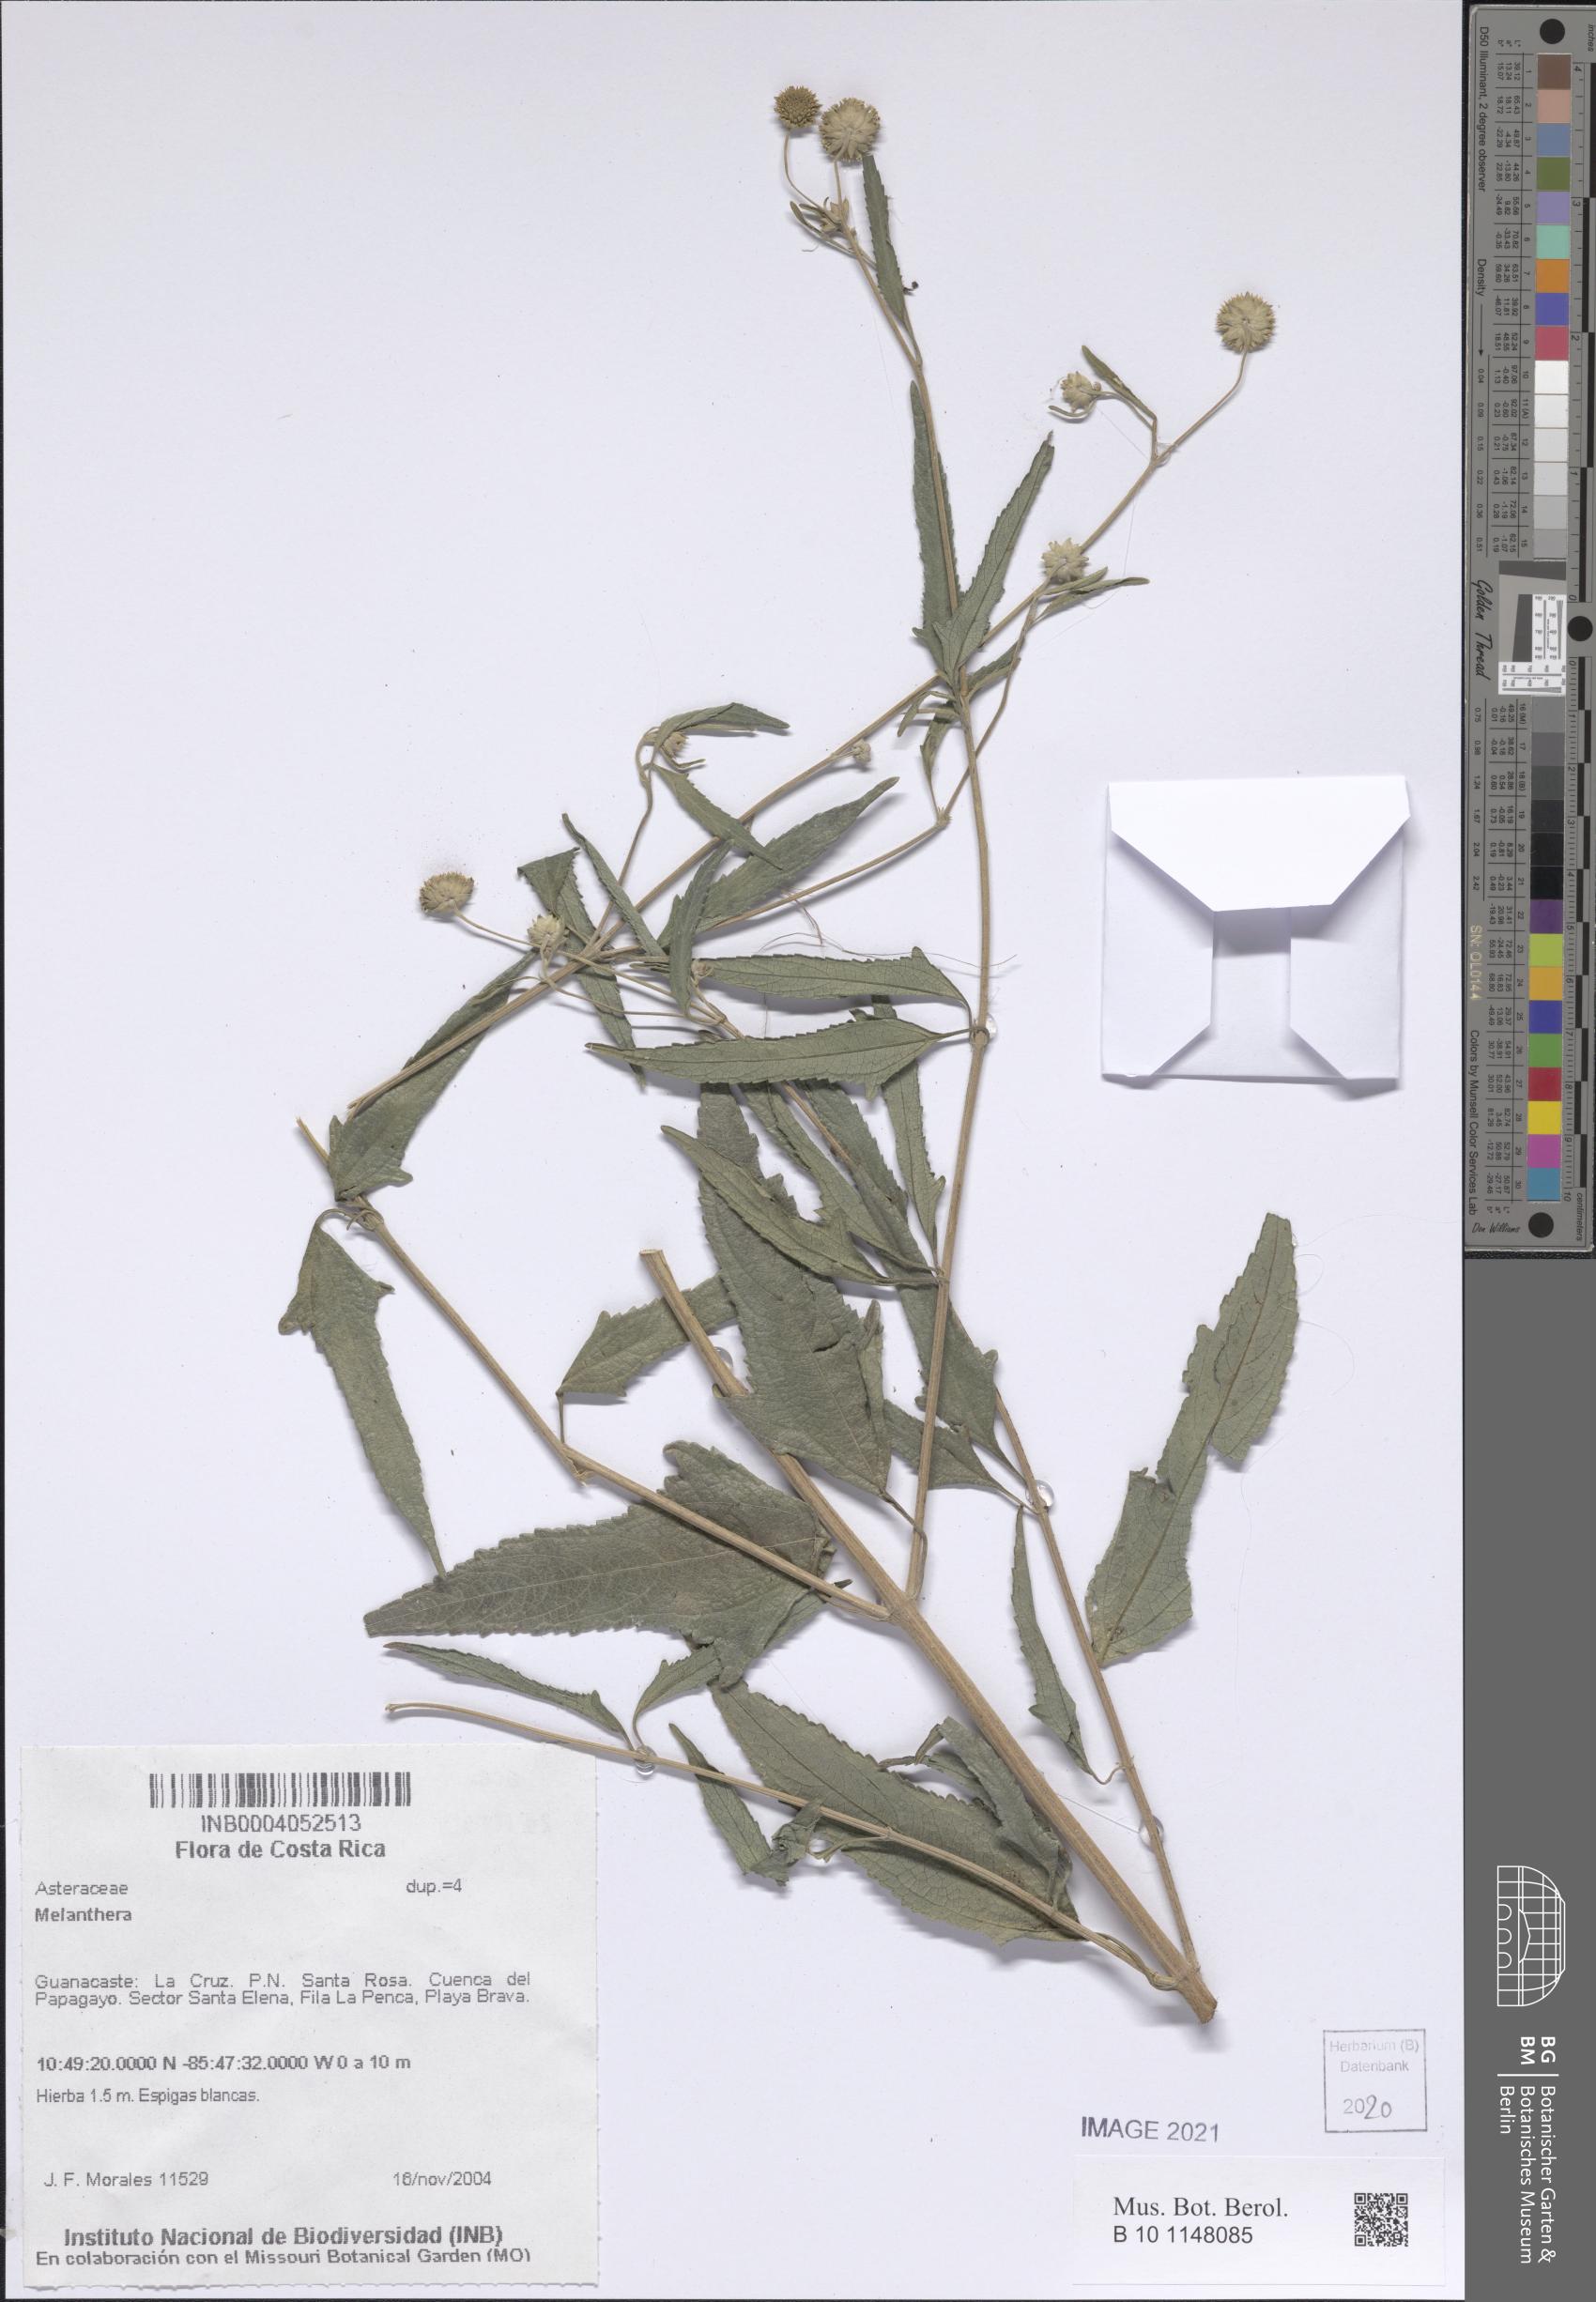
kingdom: Plantae
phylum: Tracheophyta
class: Magnoliopsida
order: Asterales
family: Asteraceae
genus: Melanthera
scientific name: Melanthera
